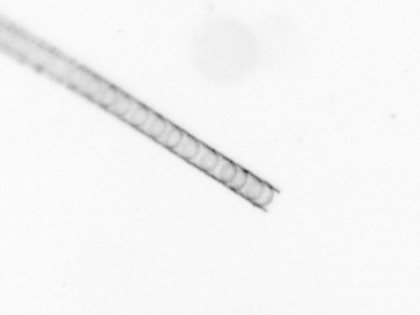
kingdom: Chromista
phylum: Ochrophyta
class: Bacillariophyceae
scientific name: Bacillariophyceae
